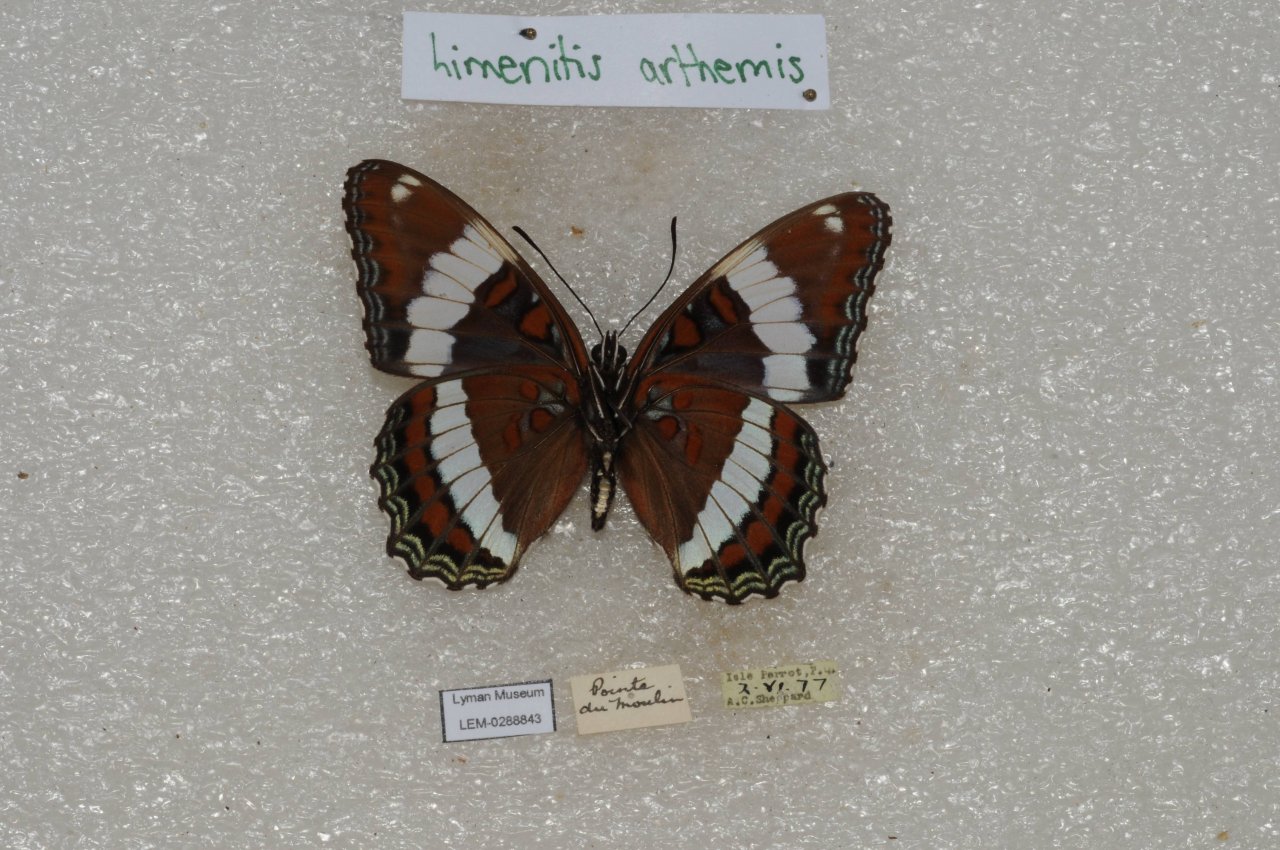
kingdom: Animalia
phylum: Arthropoda
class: Insecta
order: Lepidoptera
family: Nymphalidae
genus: Limenitis
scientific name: Limenitis arthemis
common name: Red-spotted Admiral
